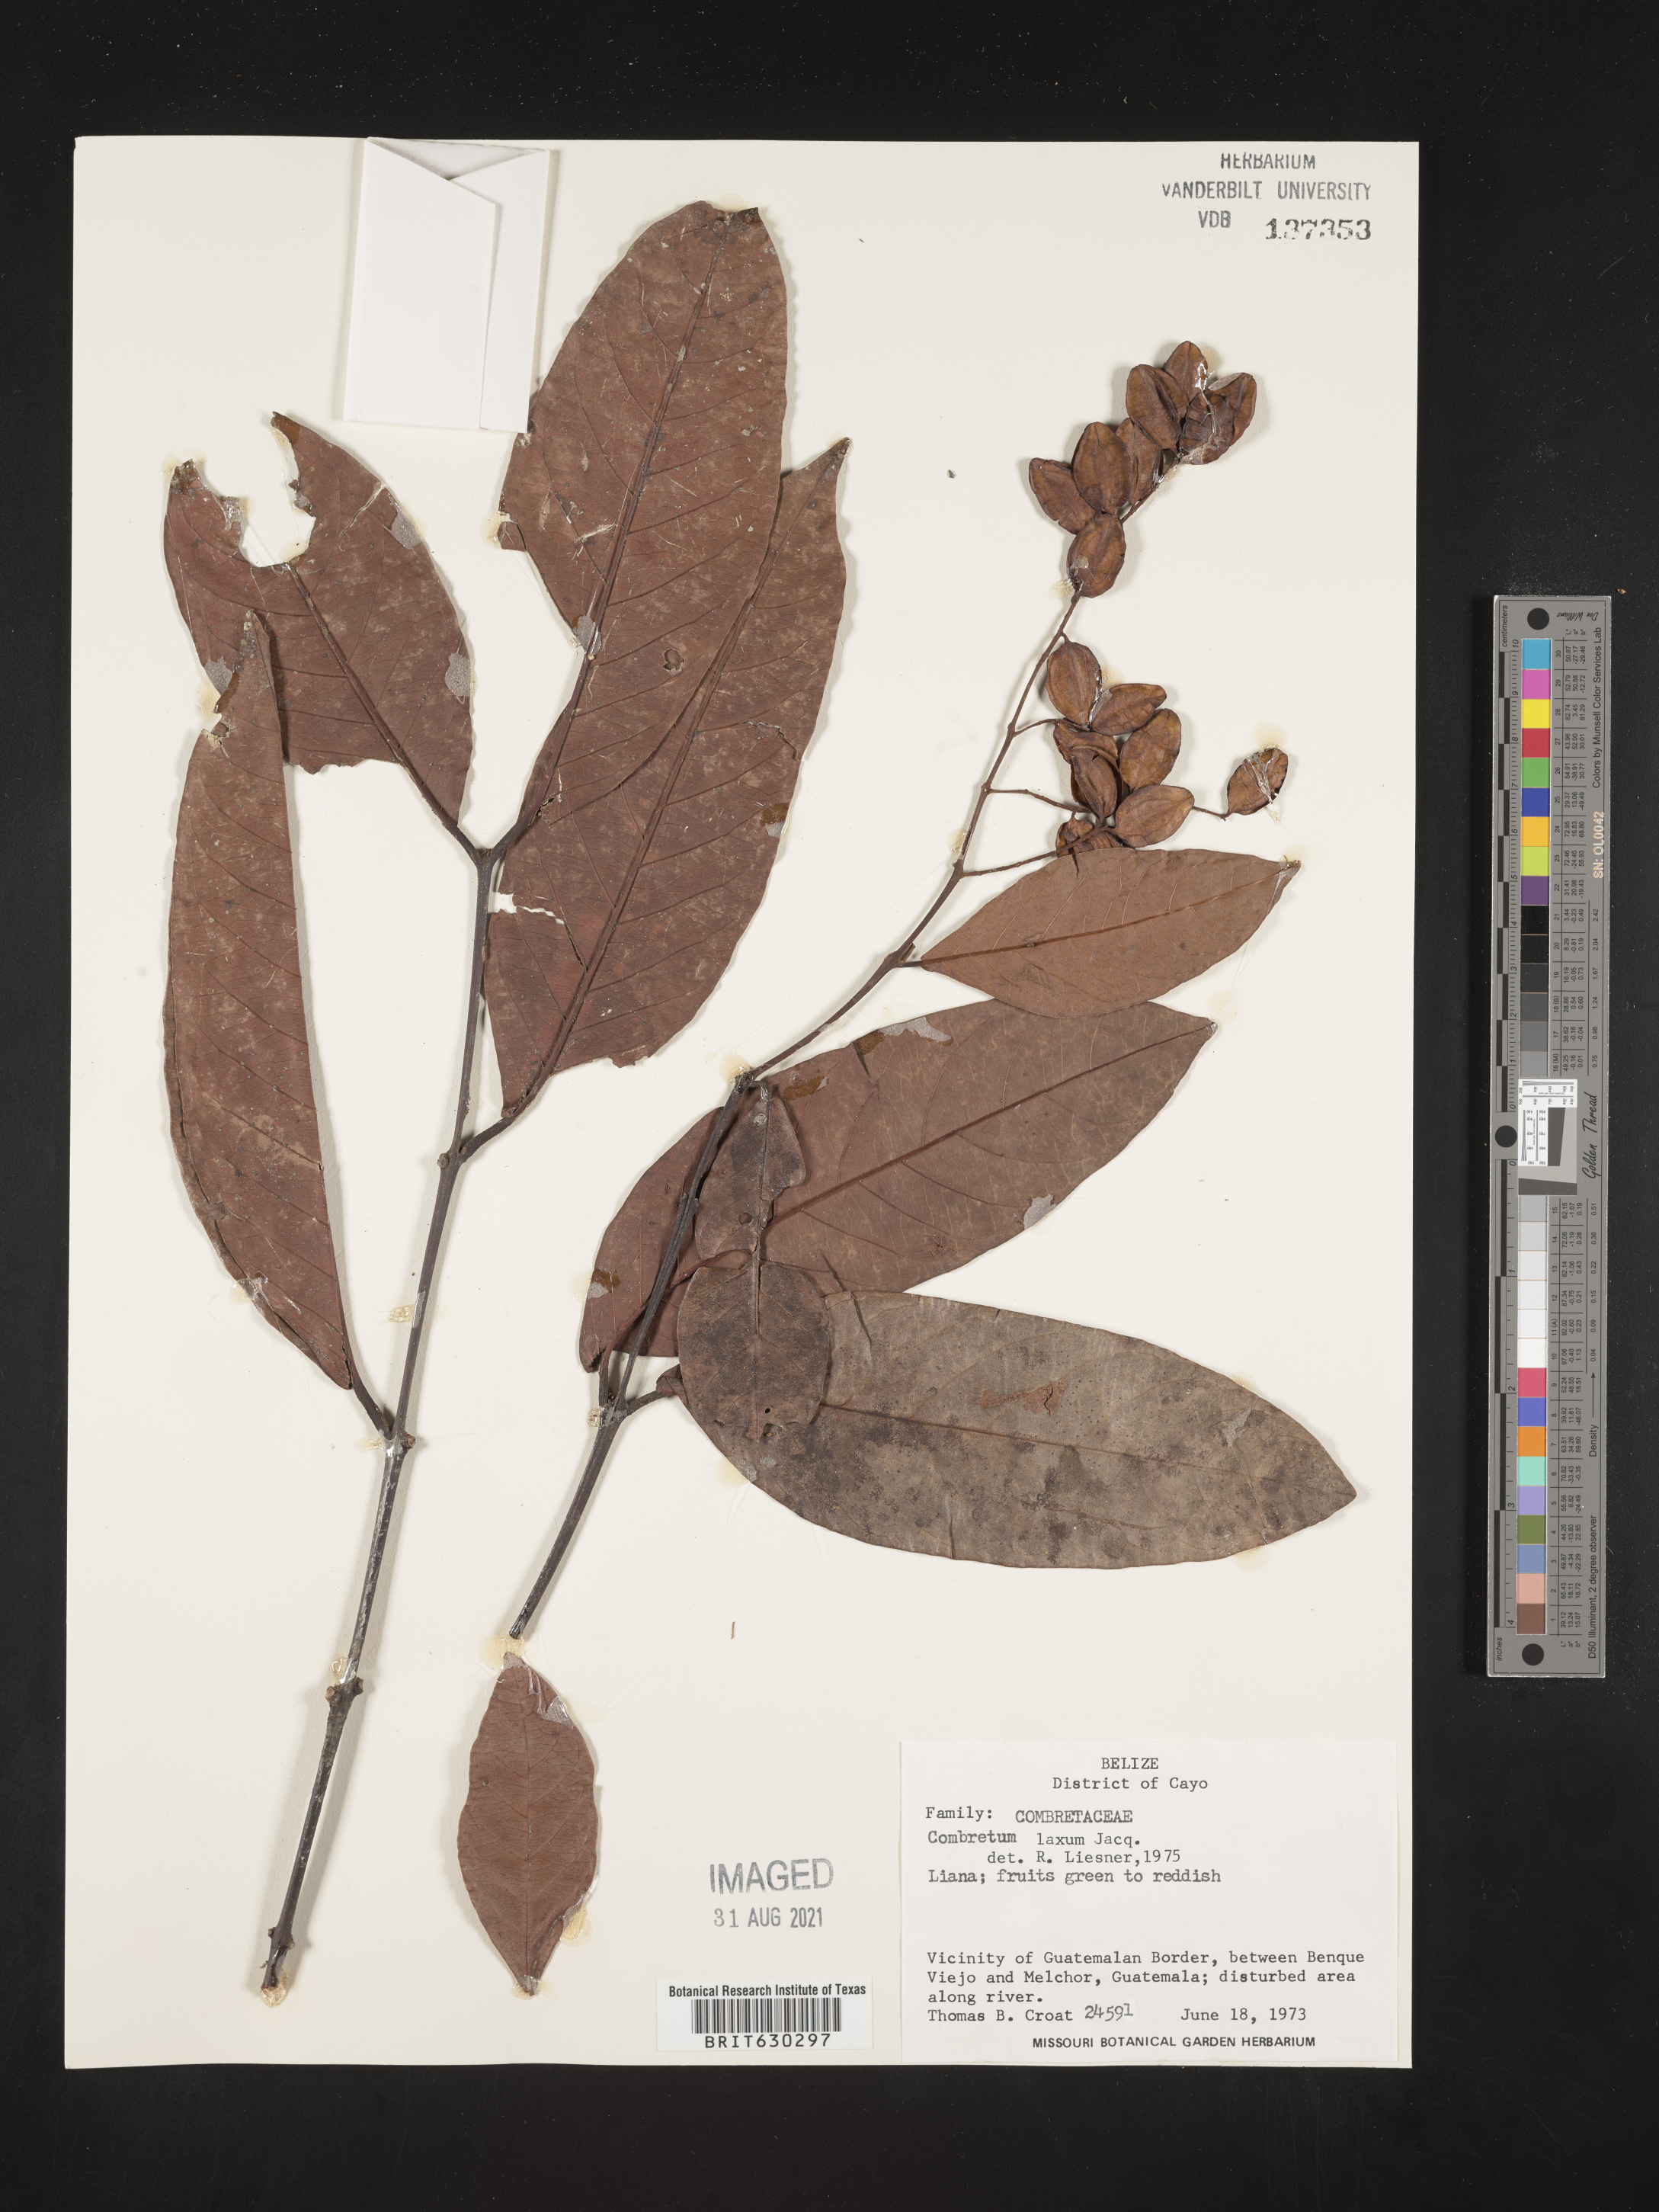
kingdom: Plantae
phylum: Tracheophyta
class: Magnoliopsida
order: Myrtales
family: Combretaceae
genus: Combretum
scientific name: Combretum rotundifolium
